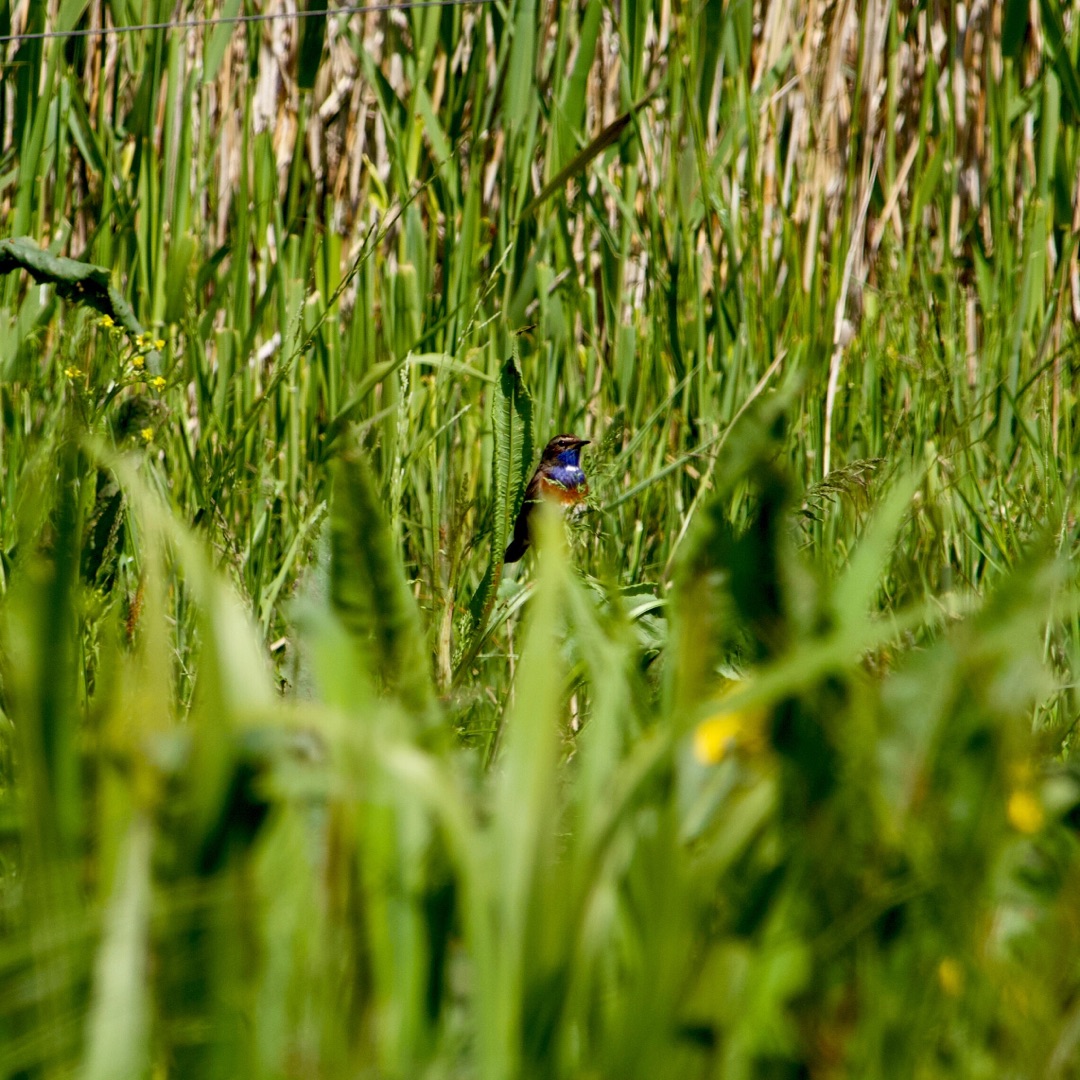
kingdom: Animalia
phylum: Chordata
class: Aves
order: Passeriformes
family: Muscicapidae
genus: Luscinia
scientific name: Luscinia svecica
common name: Blåhals
